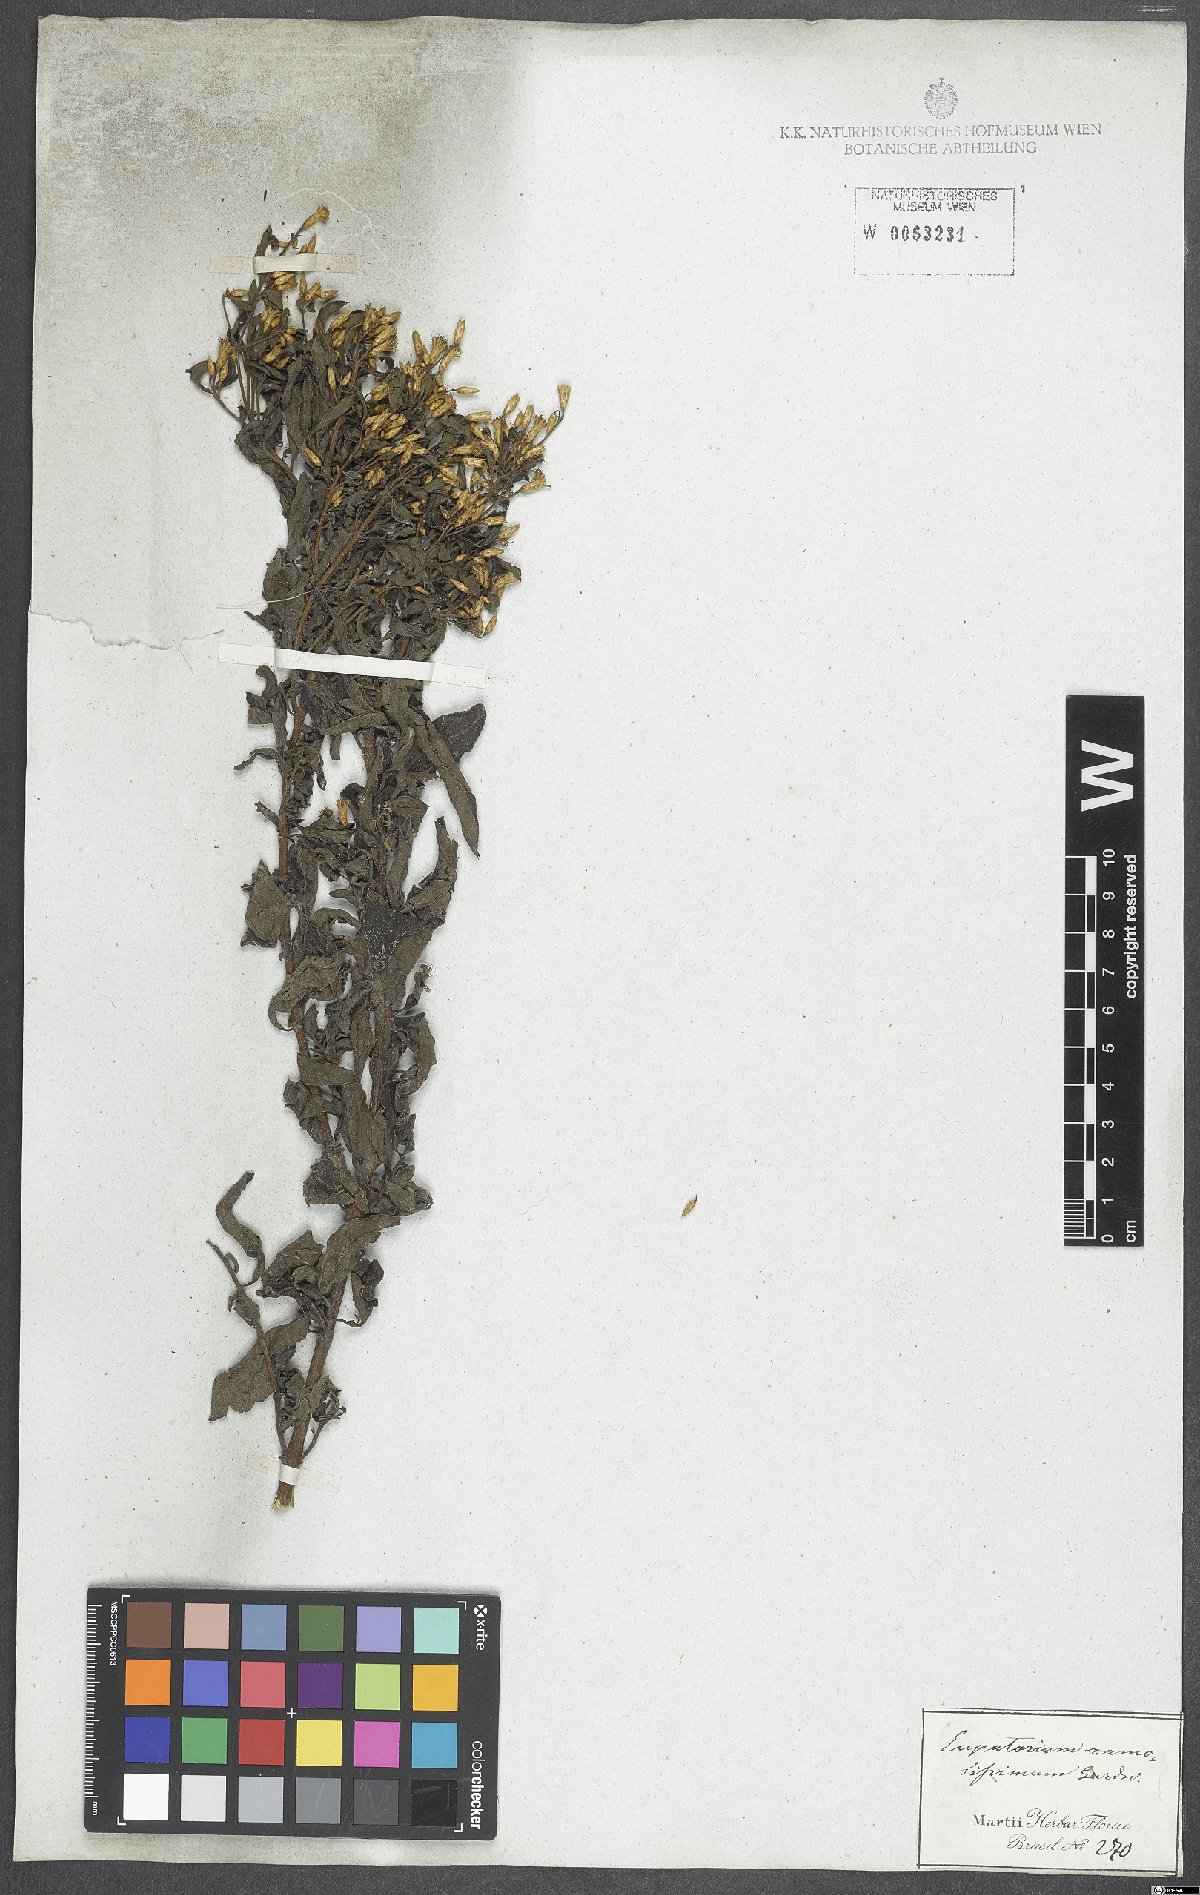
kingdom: Plantae
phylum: Tracheophyta
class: Magnoliopsida
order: Asterales
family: Asteraceae
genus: Chromolaena
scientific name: Chromolaena squalida
